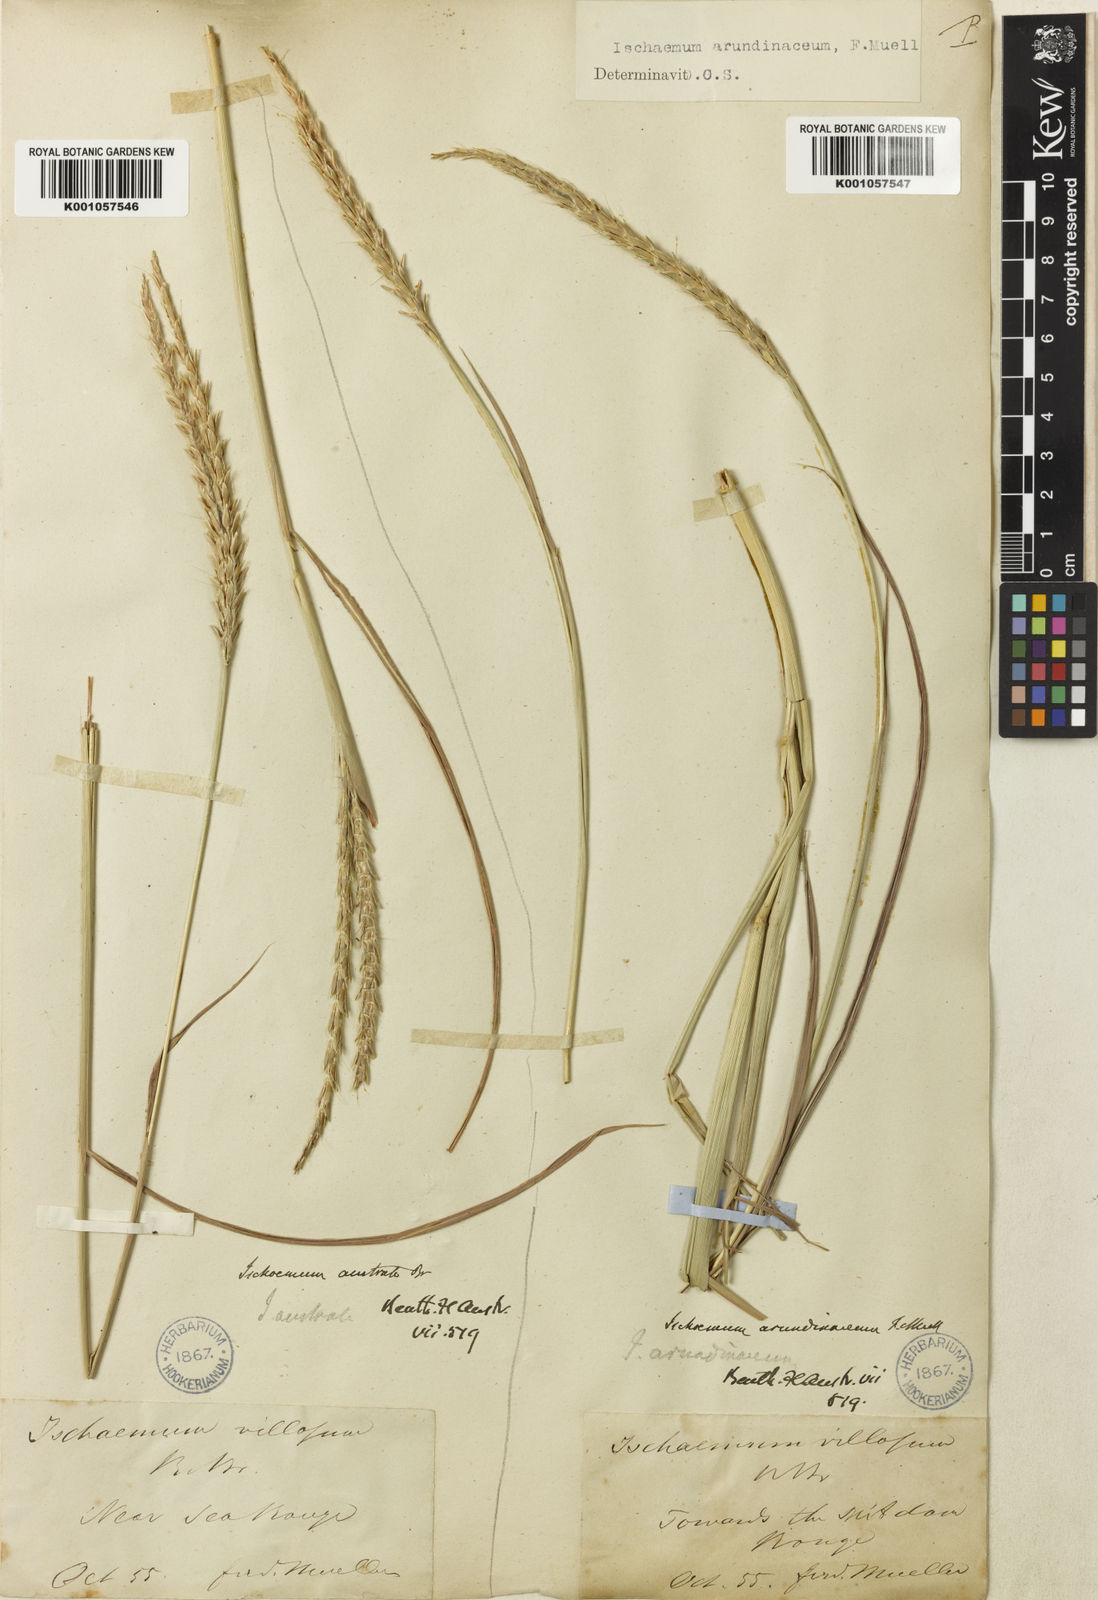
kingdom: Plantae
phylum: Tracheophyta
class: Liliopsida
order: Poales
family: Poaceae
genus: Ischaemum
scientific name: Ischaemum australe
